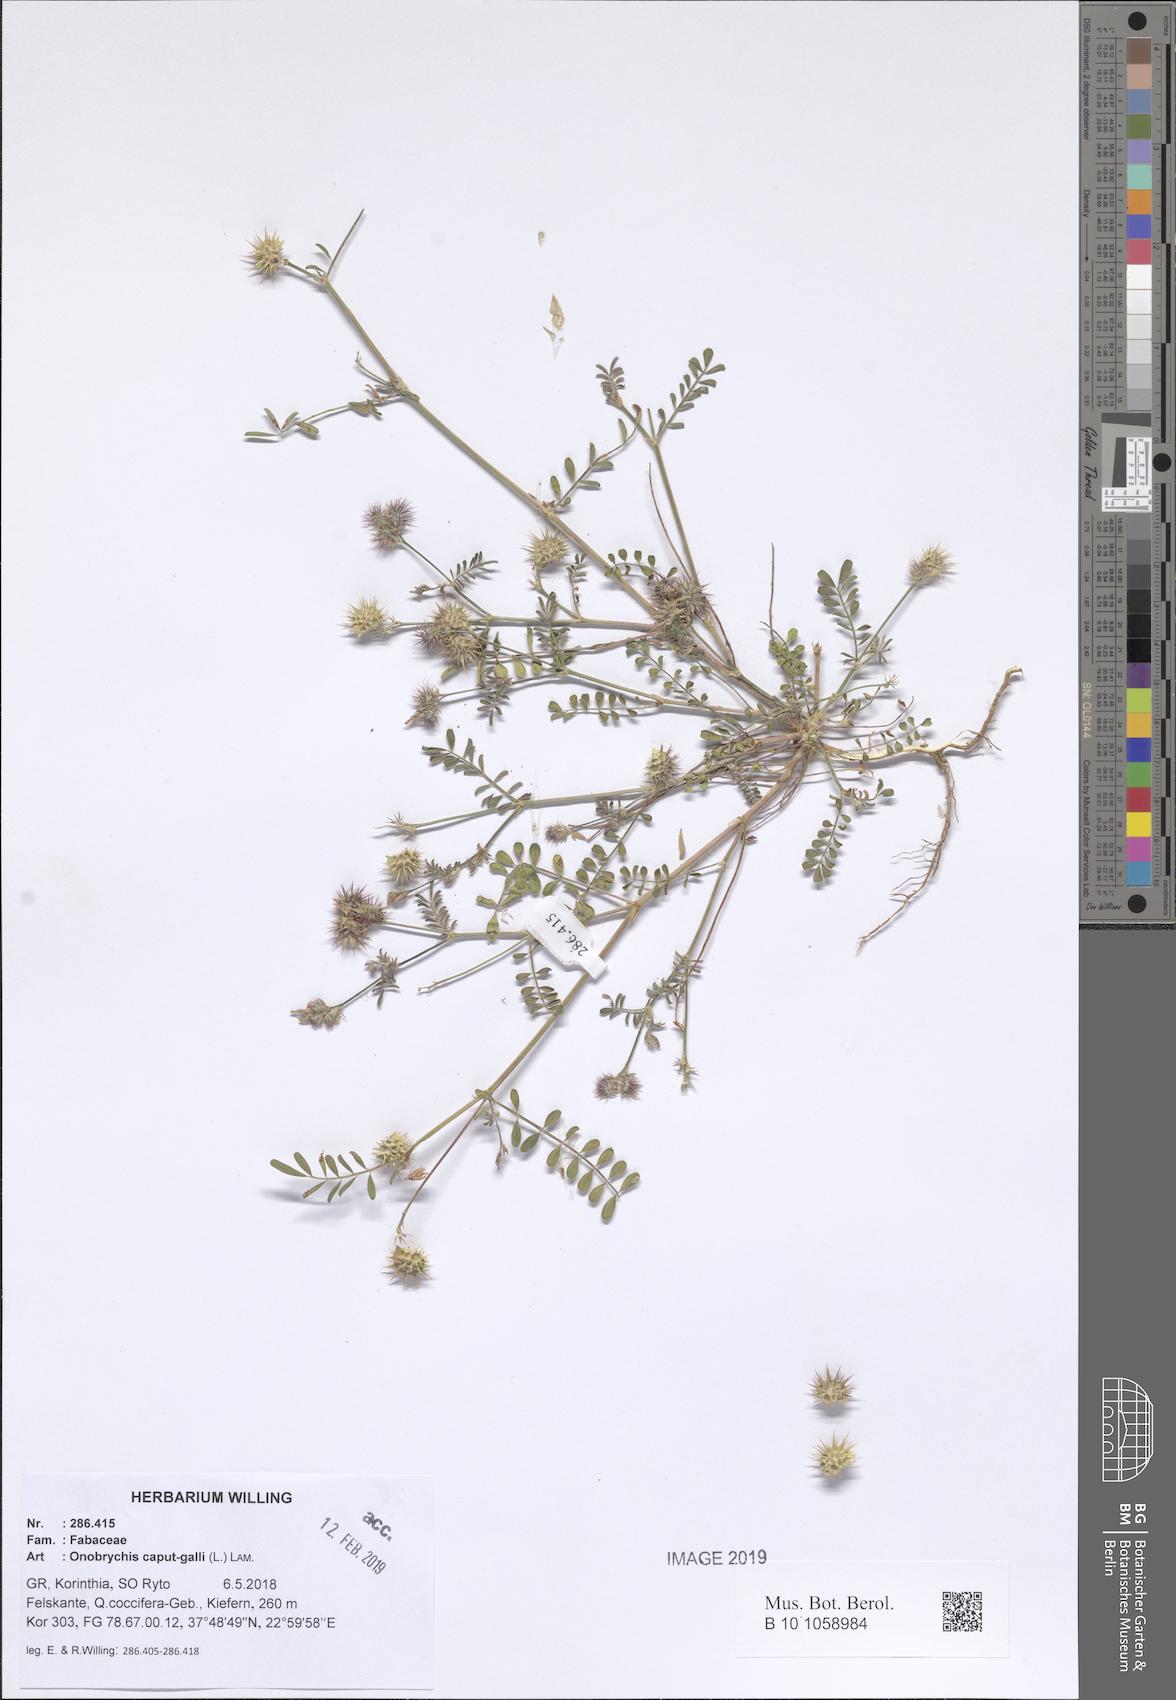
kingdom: Plantae
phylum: Tracheophyta
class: Magnoliopsida
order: Fabales
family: Fabaceae
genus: Onobrychis
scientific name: Onobrychis caput-galli
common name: Cockscomb sainfoin
